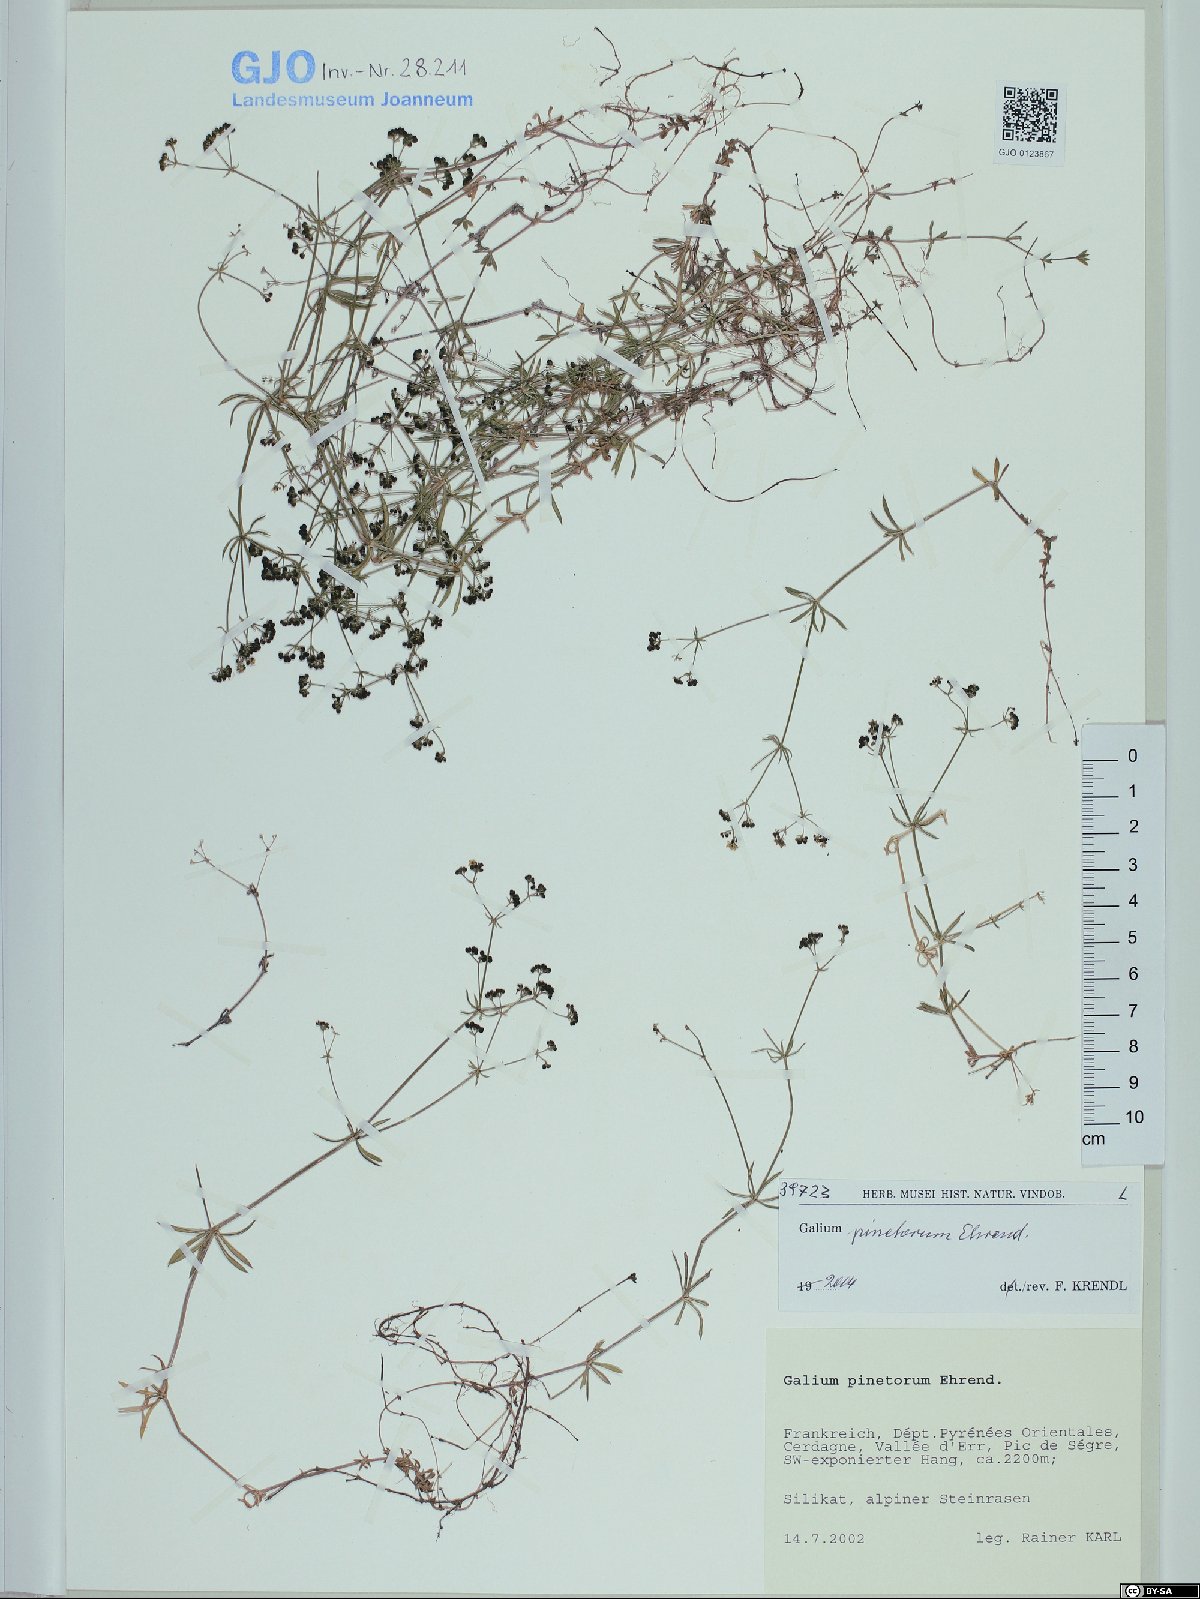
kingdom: Plantae
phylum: Tracheophyta
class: Magnoliopsida
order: Gentianales
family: Rubiaceae
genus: Galium
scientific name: Galium estebanii
